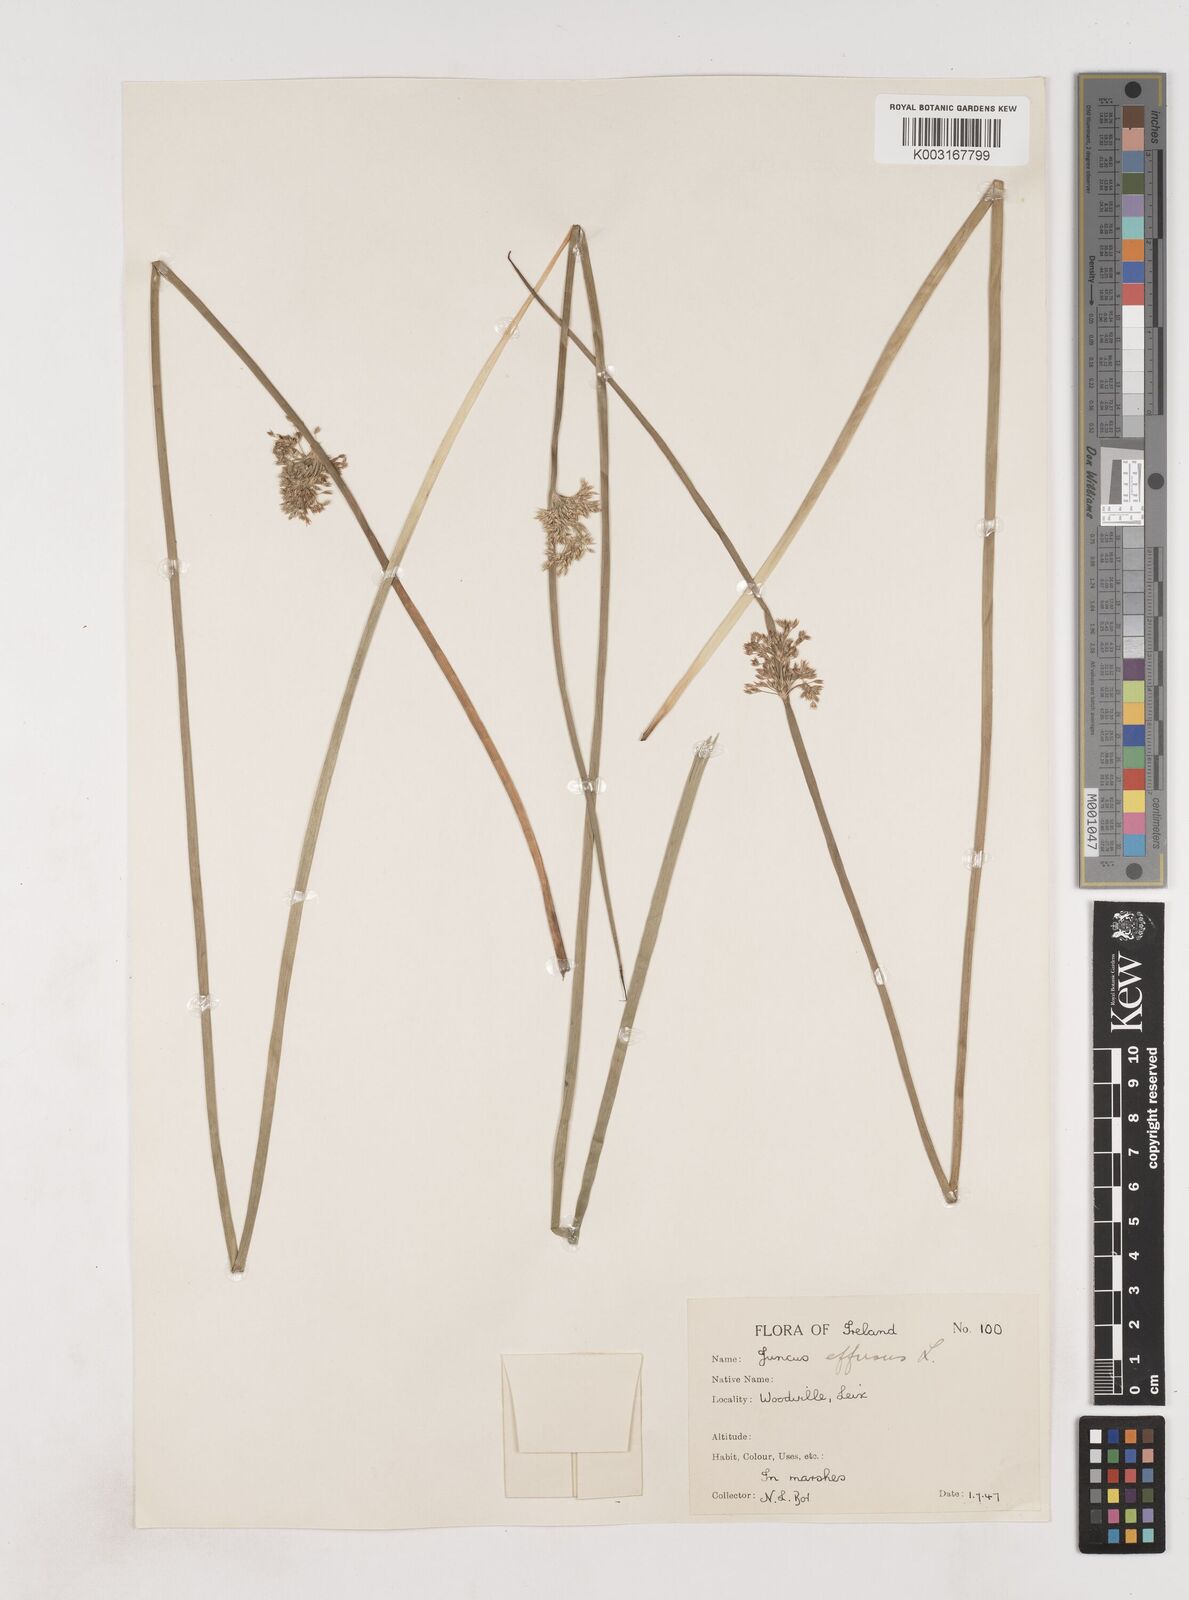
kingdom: Plantae
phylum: Tracheophyta
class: Liliopsida
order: Poales
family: Juncaceae
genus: Juncus
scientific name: Juncus effusus
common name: Soft rush
